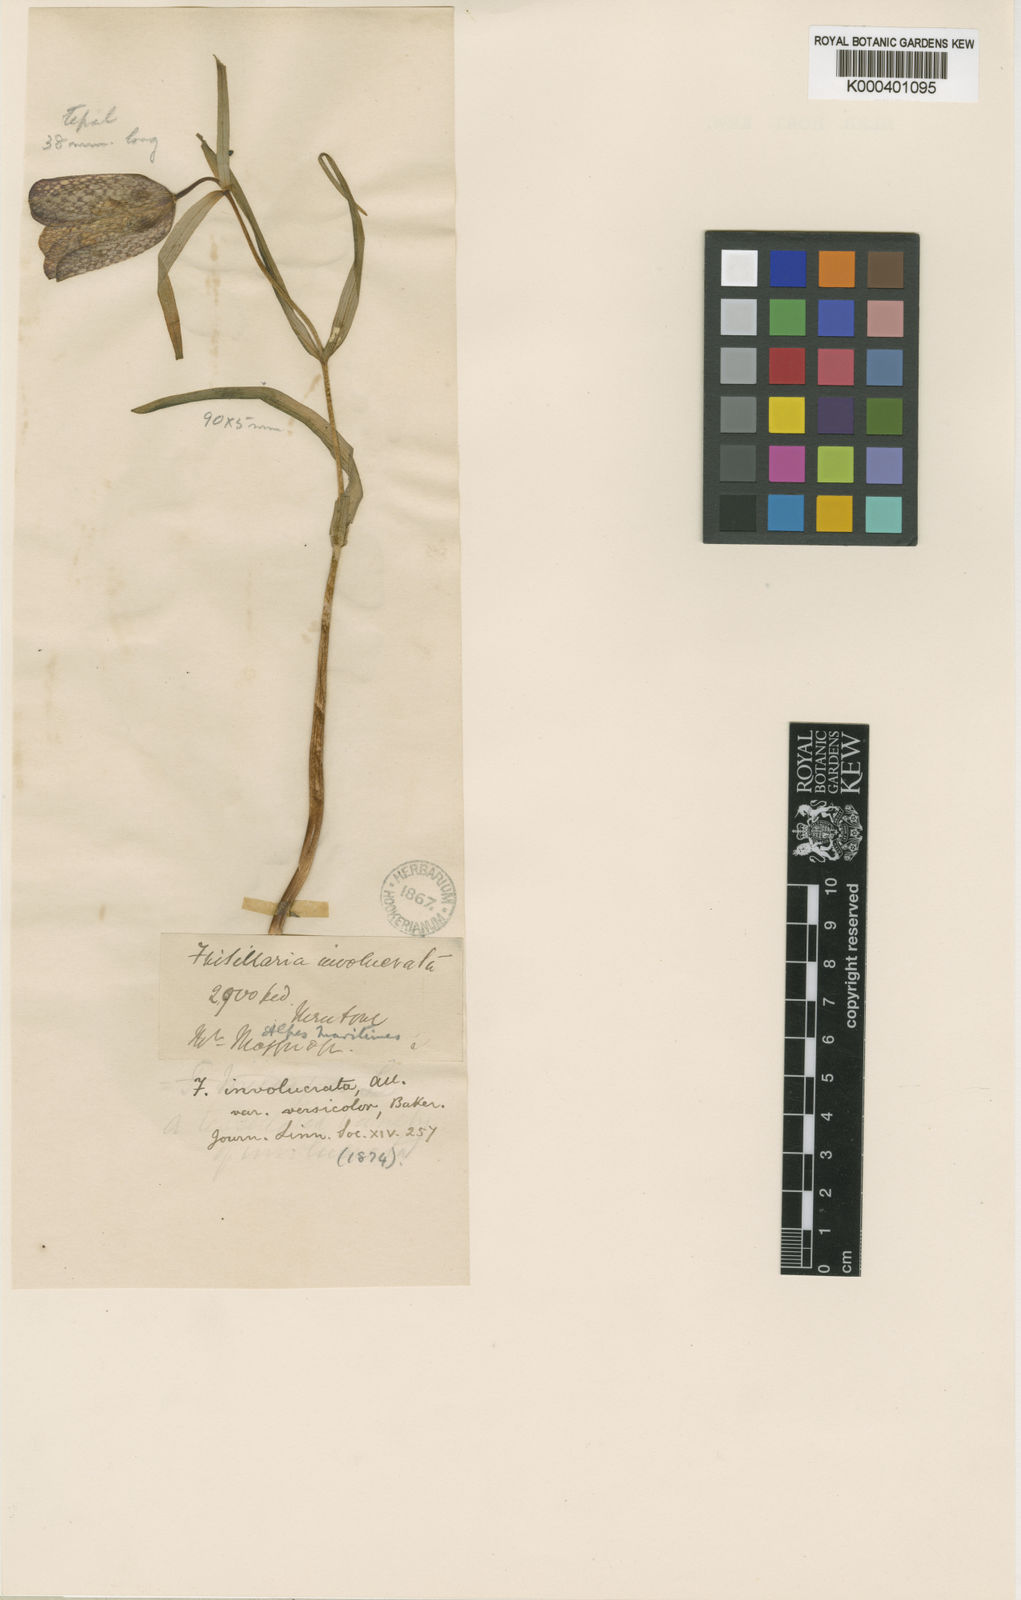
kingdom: Plantae
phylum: Tracheophyta
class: Liliopsida
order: Liliales
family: Liliaceae
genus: Fritillaria
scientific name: Fritillaria involucrata
